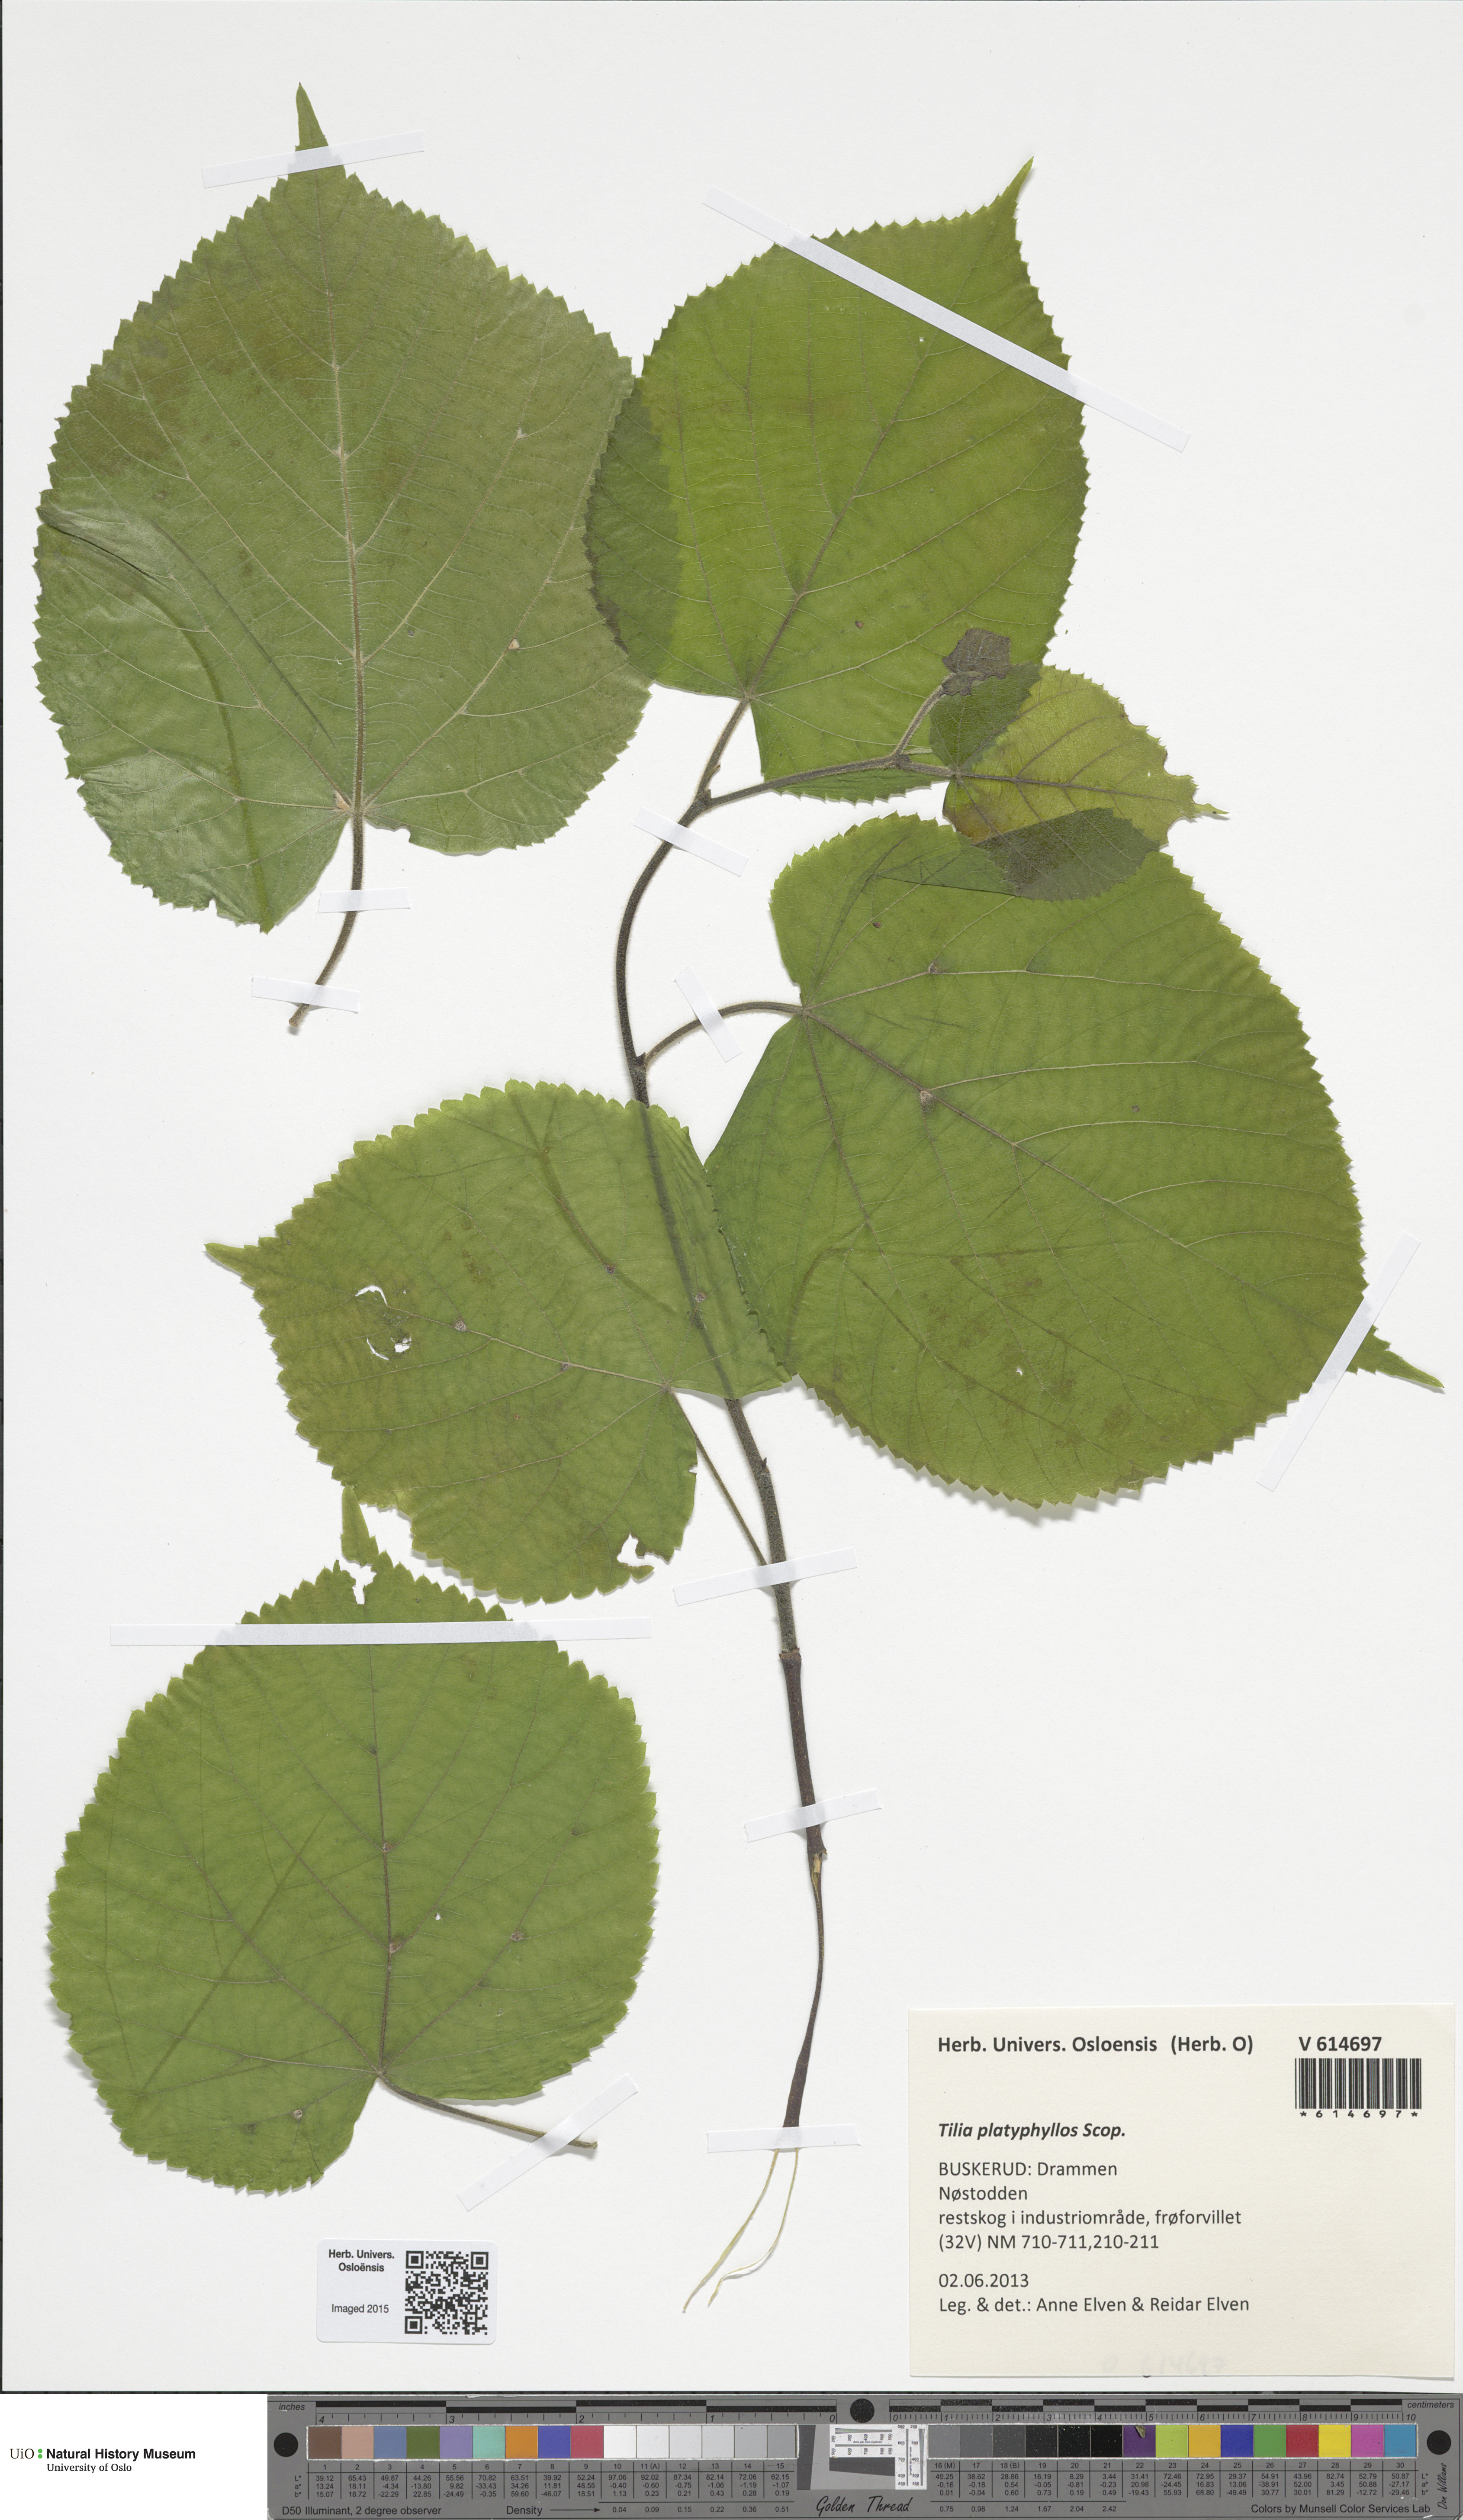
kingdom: Plantae
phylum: Tracheophyta
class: Magnoliopsida
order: Malvales
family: Malvaceae
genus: Tilia
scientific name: Tilia platyphyllos
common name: Large-leaved lime
